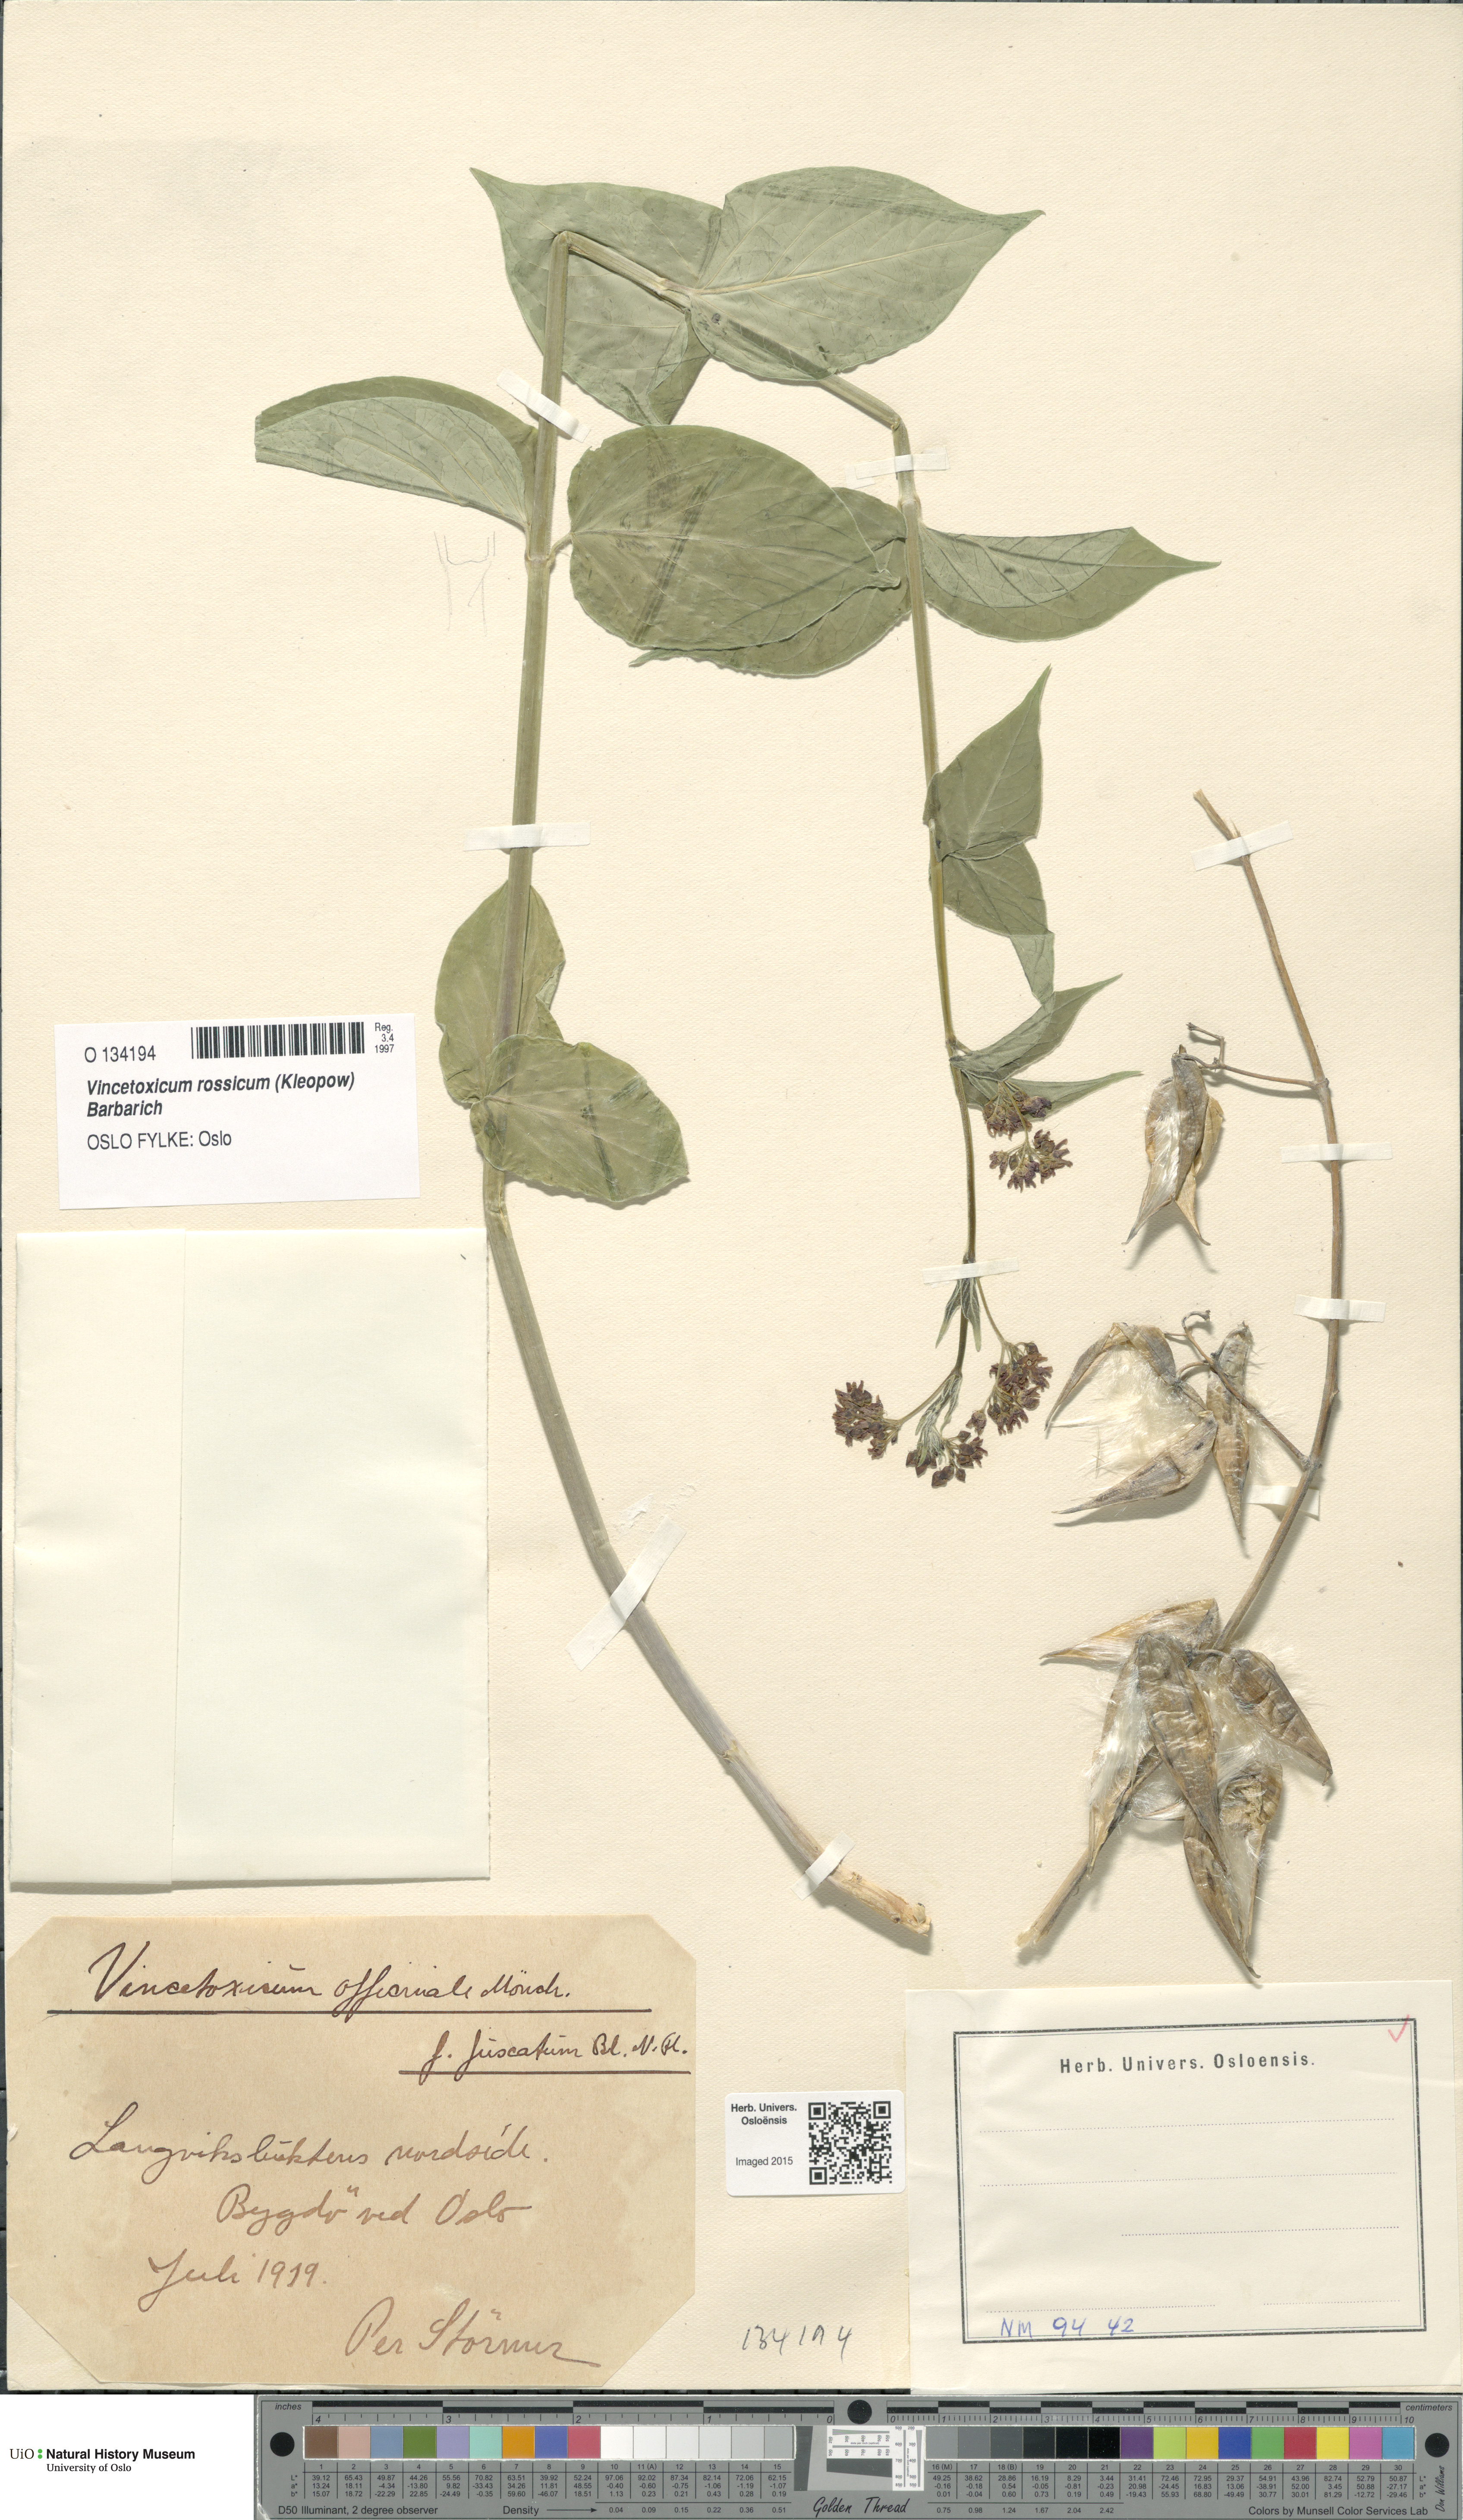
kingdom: Plantae
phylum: Tracheophyta
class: Magnoliopsida
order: Gentianales
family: Apocynaceae
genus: Vincetoxicum
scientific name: Vincetoxicum rossicum
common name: Dog-strangling vine
